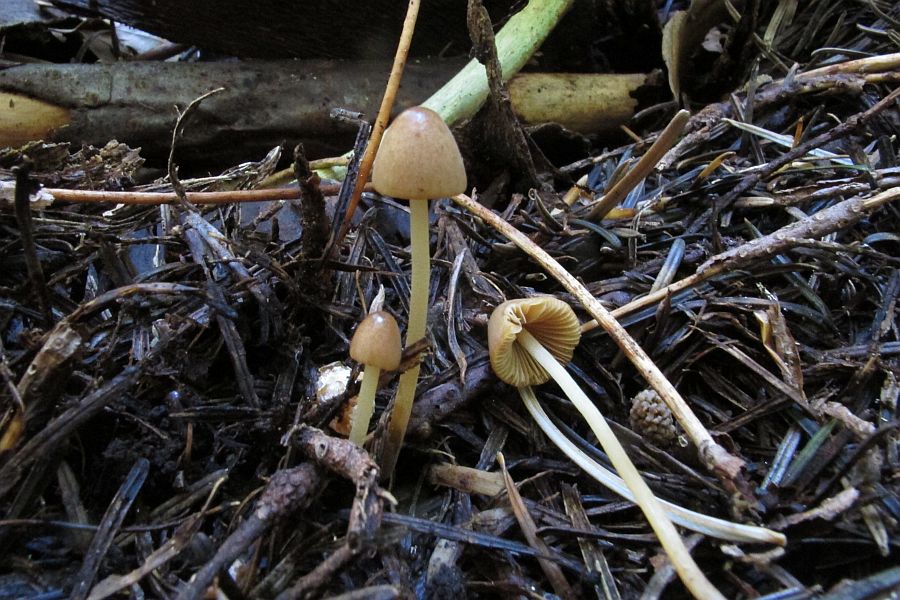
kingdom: Fungi
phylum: Basidiomycota
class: Agaricomycetes
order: Agaricales
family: Bolbitiaceae
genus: Conocybe
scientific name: Conocybe juniana
